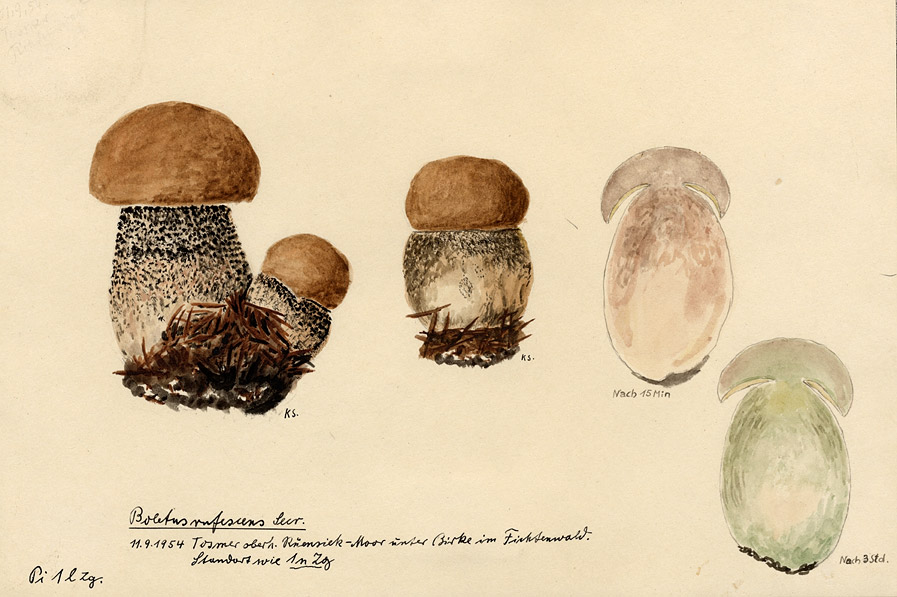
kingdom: Fungi
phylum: Basidiomycota
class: Agaricomycetes
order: Boletales
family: Boletaceae
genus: Leccinum
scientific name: Leccinum versipelle
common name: Orange birch bolete
